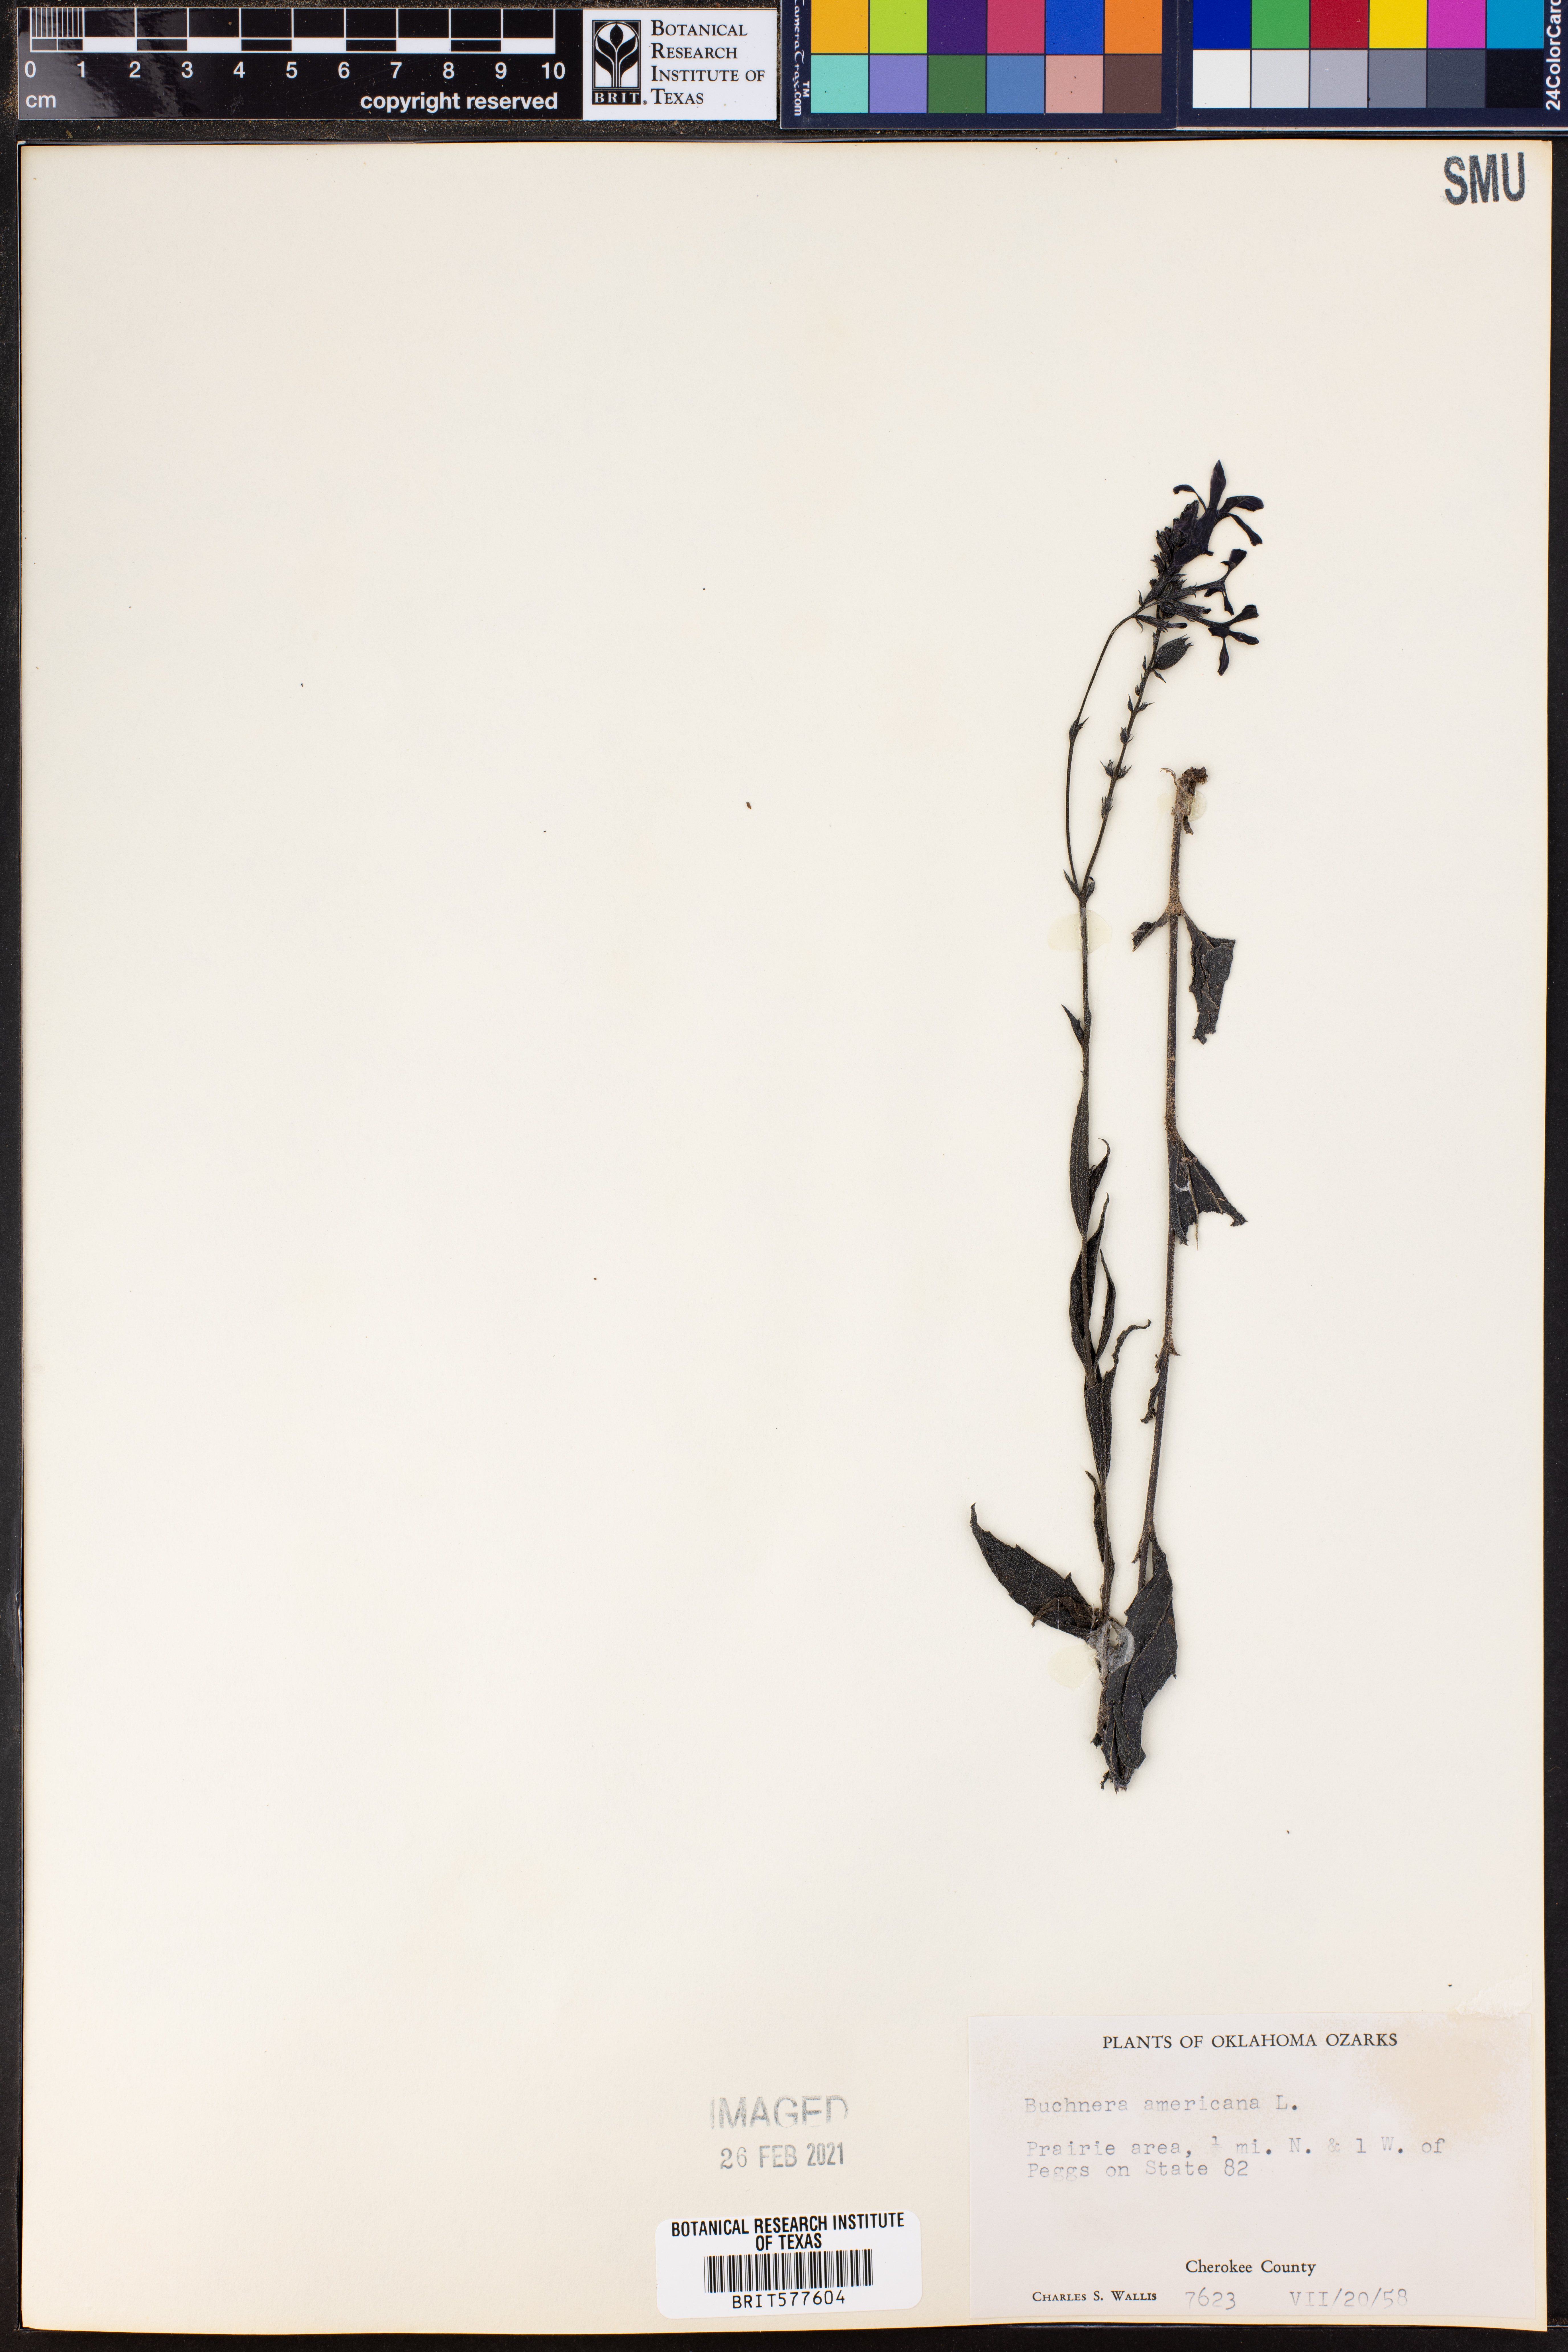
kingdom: Plantae
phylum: Tracheophyta
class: Magnoliopsida
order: Lamiales
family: Orobanchaceae
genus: Buchnera
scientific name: Buchnera americana
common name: American bluehearts
